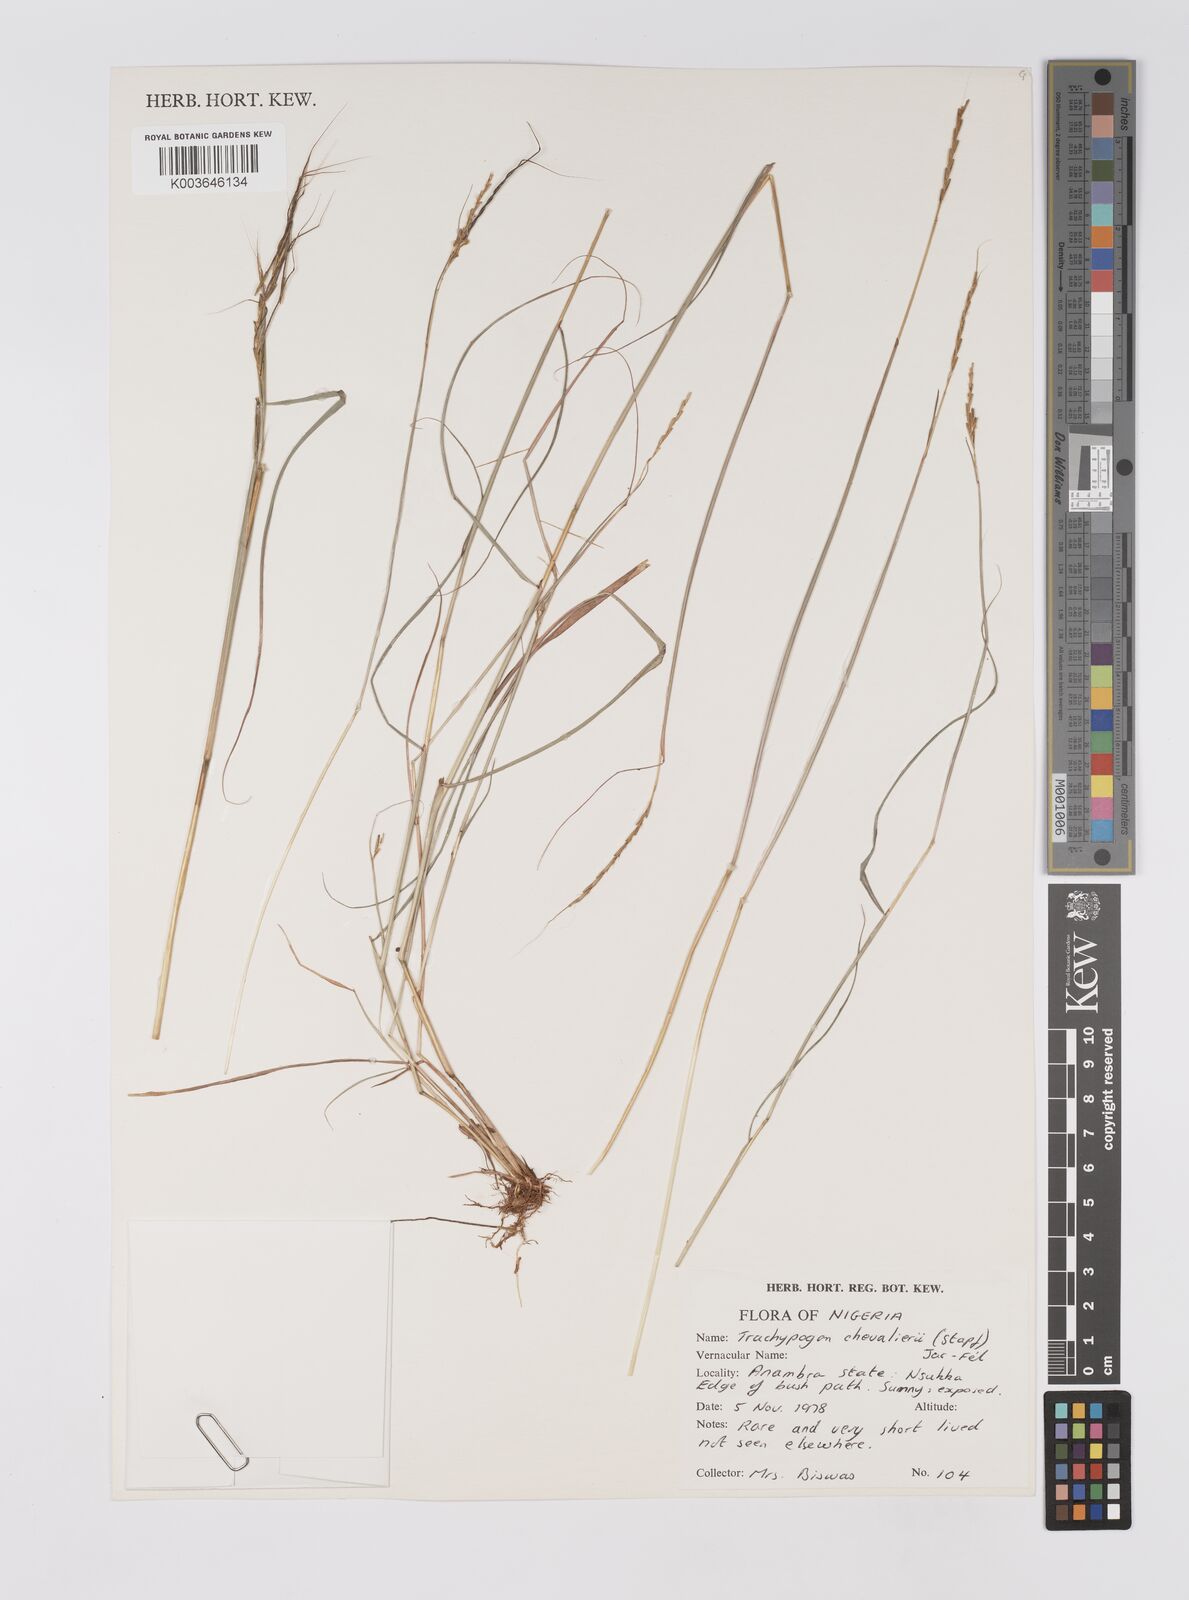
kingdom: Plantae
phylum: Tracheophyta
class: Liliopsida
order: Poales
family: Poaceae
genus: Trachypogon
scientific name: Trachypogon chevalieri
